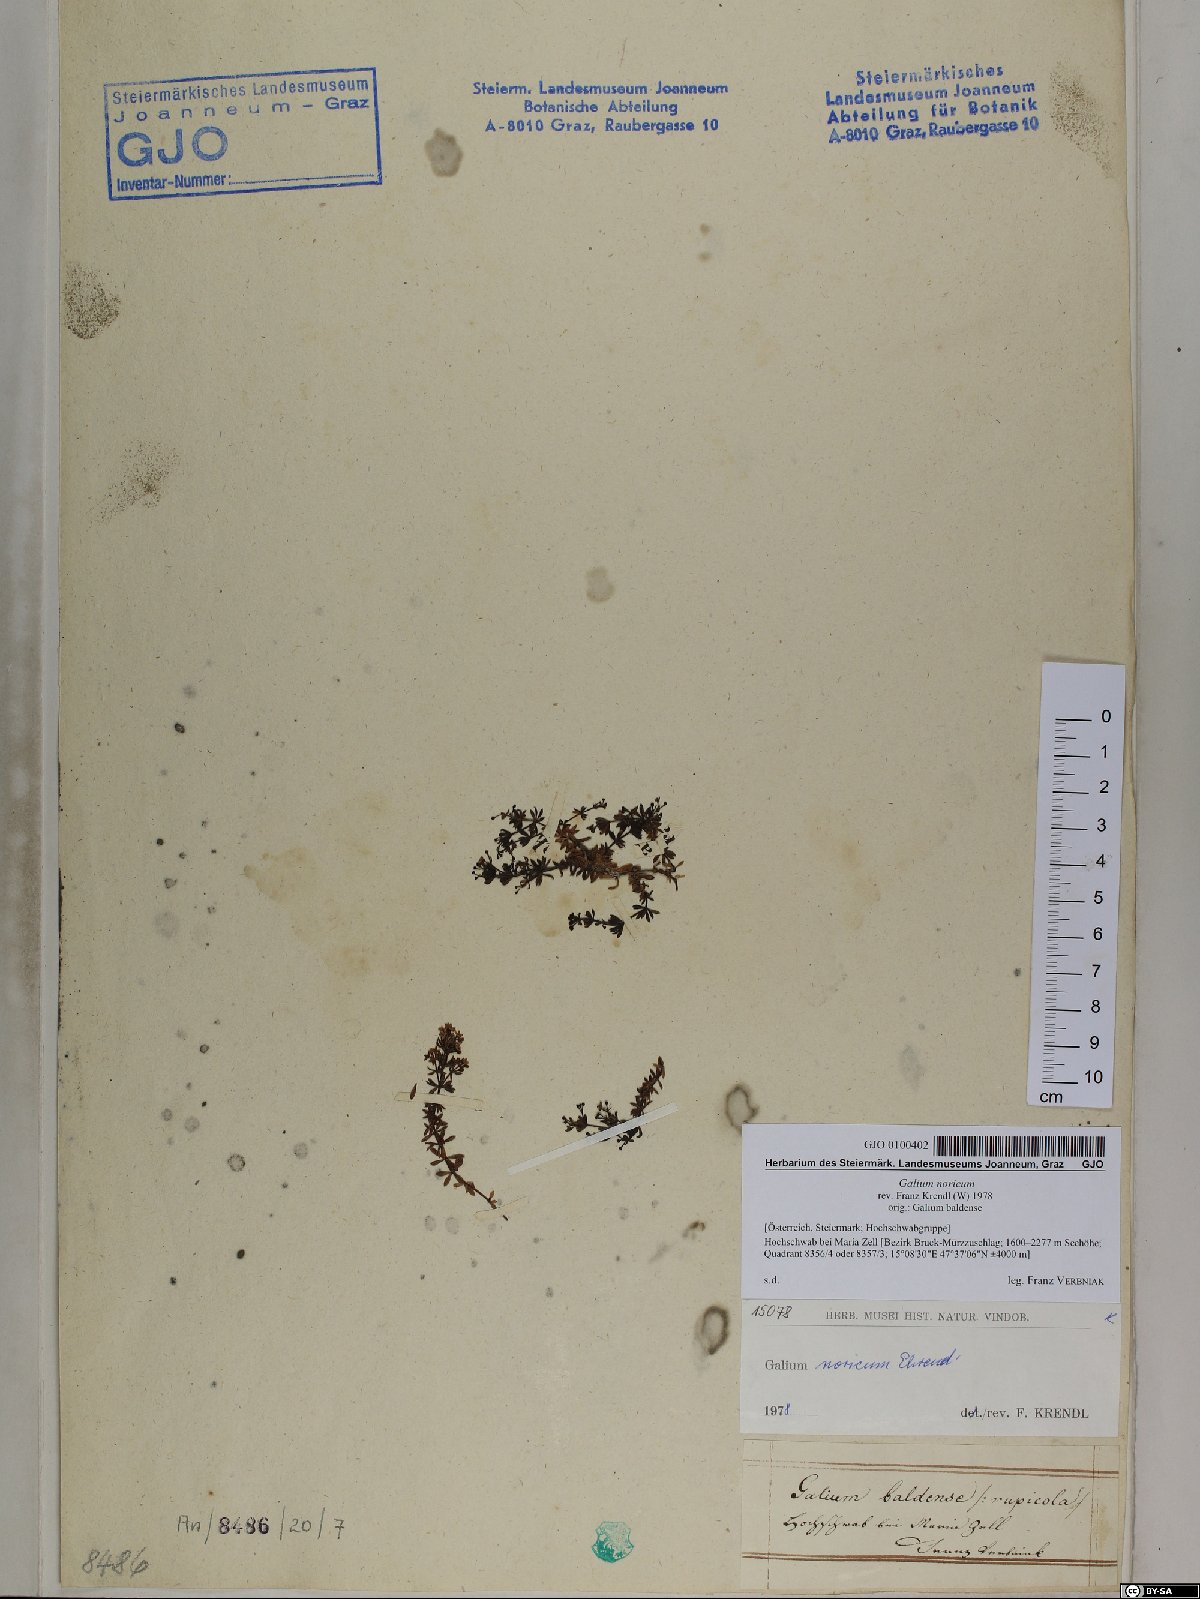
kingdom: Plantae
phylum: Tracheophyta
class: Magnoliopsida
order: Gentianales
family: Rubiaceae
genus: Galium
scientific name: Galium noricum
